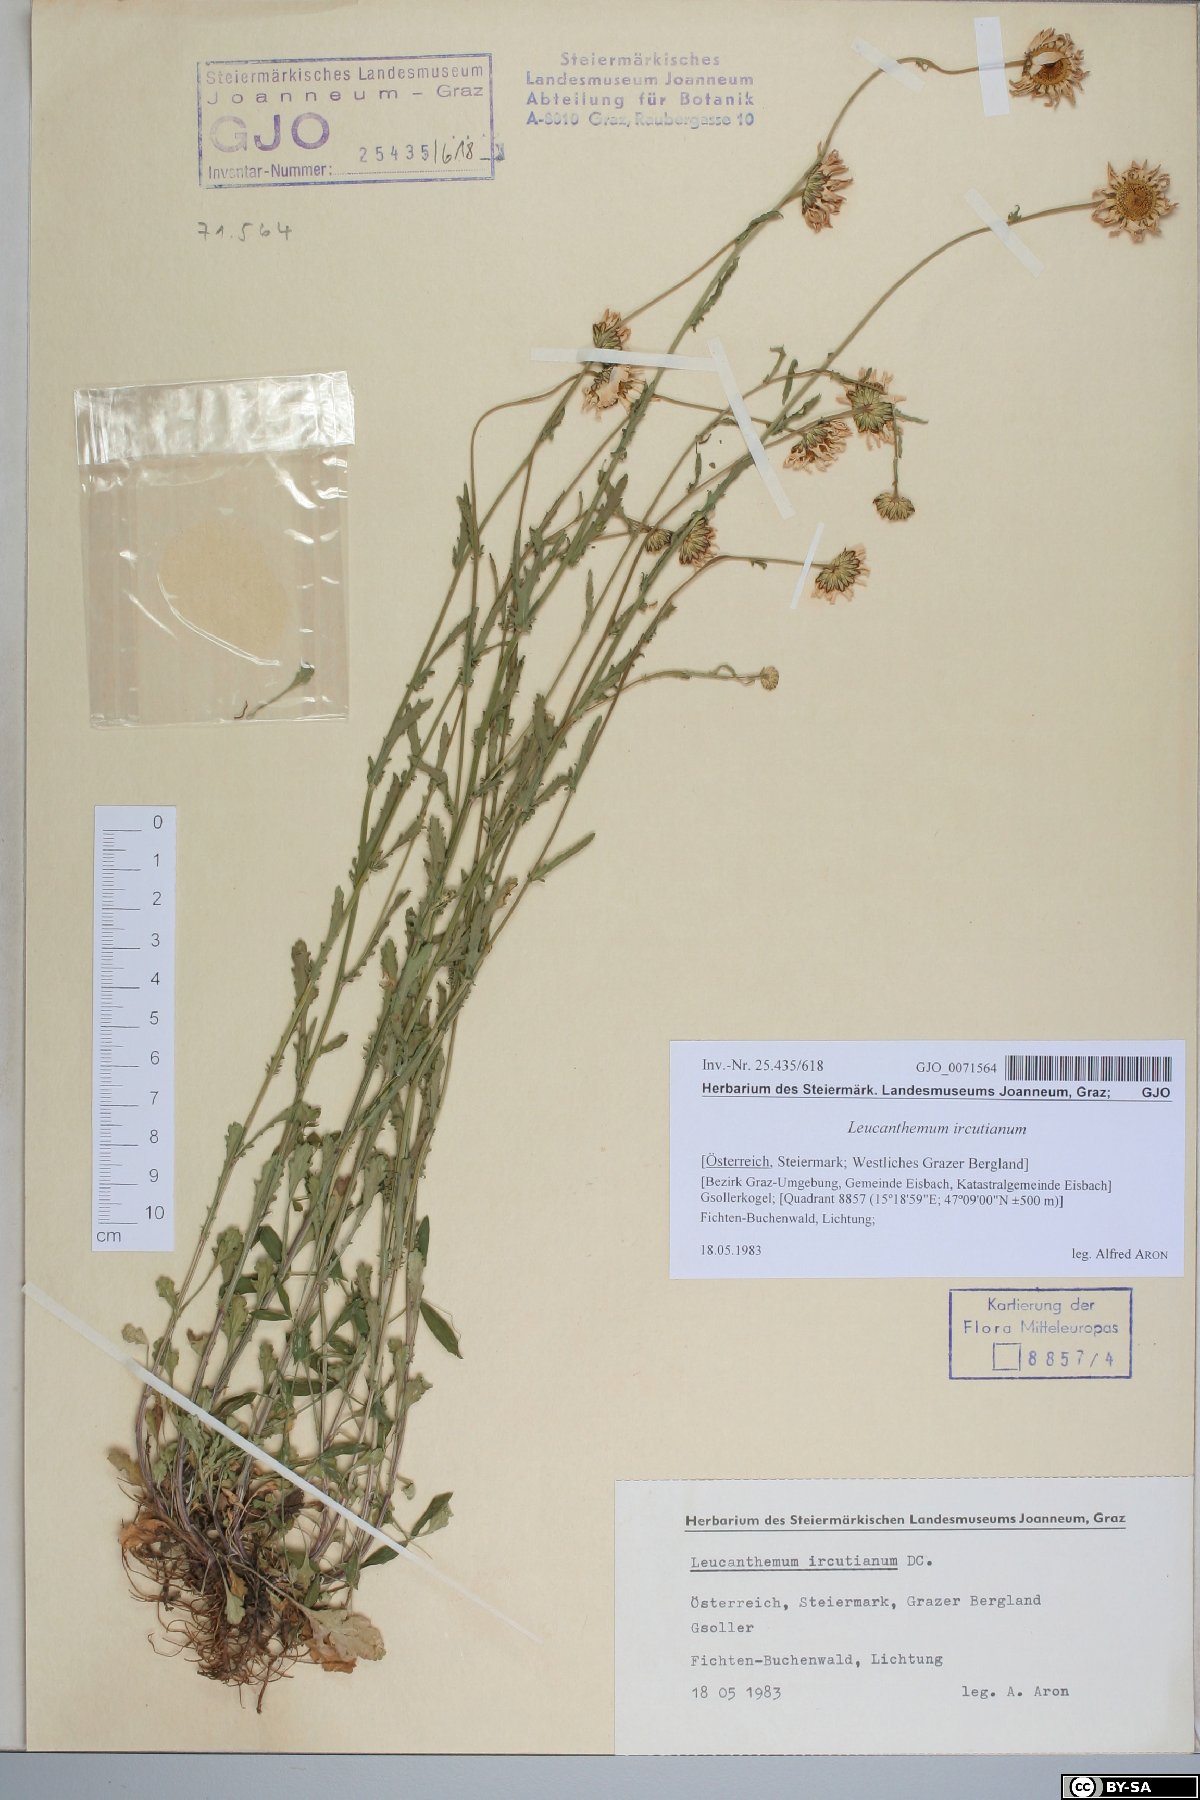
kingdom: Plantae
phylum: Tracheophyta
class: Magnoliopsida
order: Asterales
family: Asteraceae
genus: Leucanthemum
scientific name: Leucanthemum ircutianum
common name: Daisy
